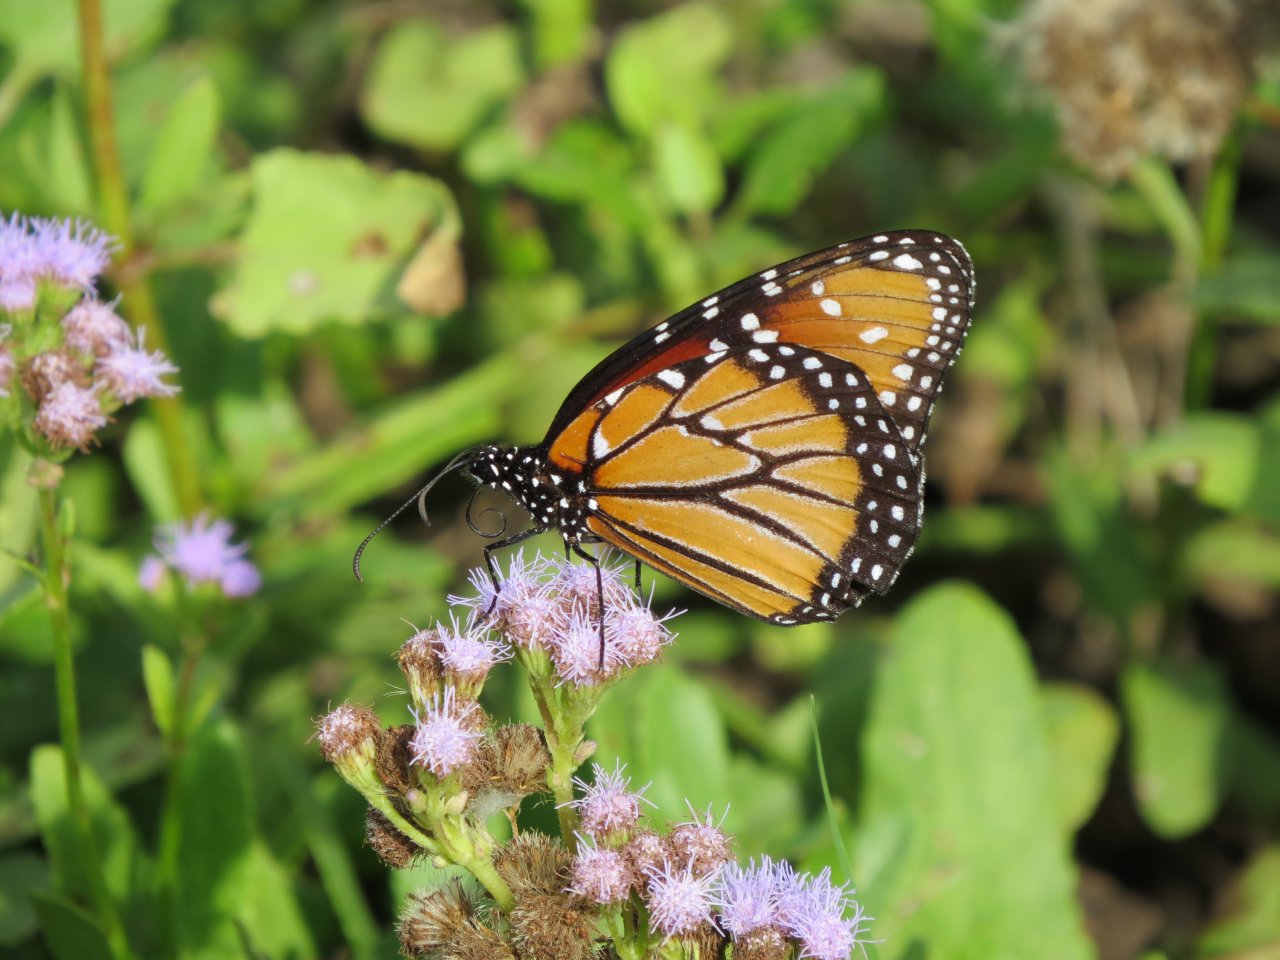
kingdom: Animalia
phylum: Arthropoda
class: Insecta
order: Lepidoptera
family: Nymphalidae
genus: Danaus
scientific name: Danaus gilippus
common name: Queen
